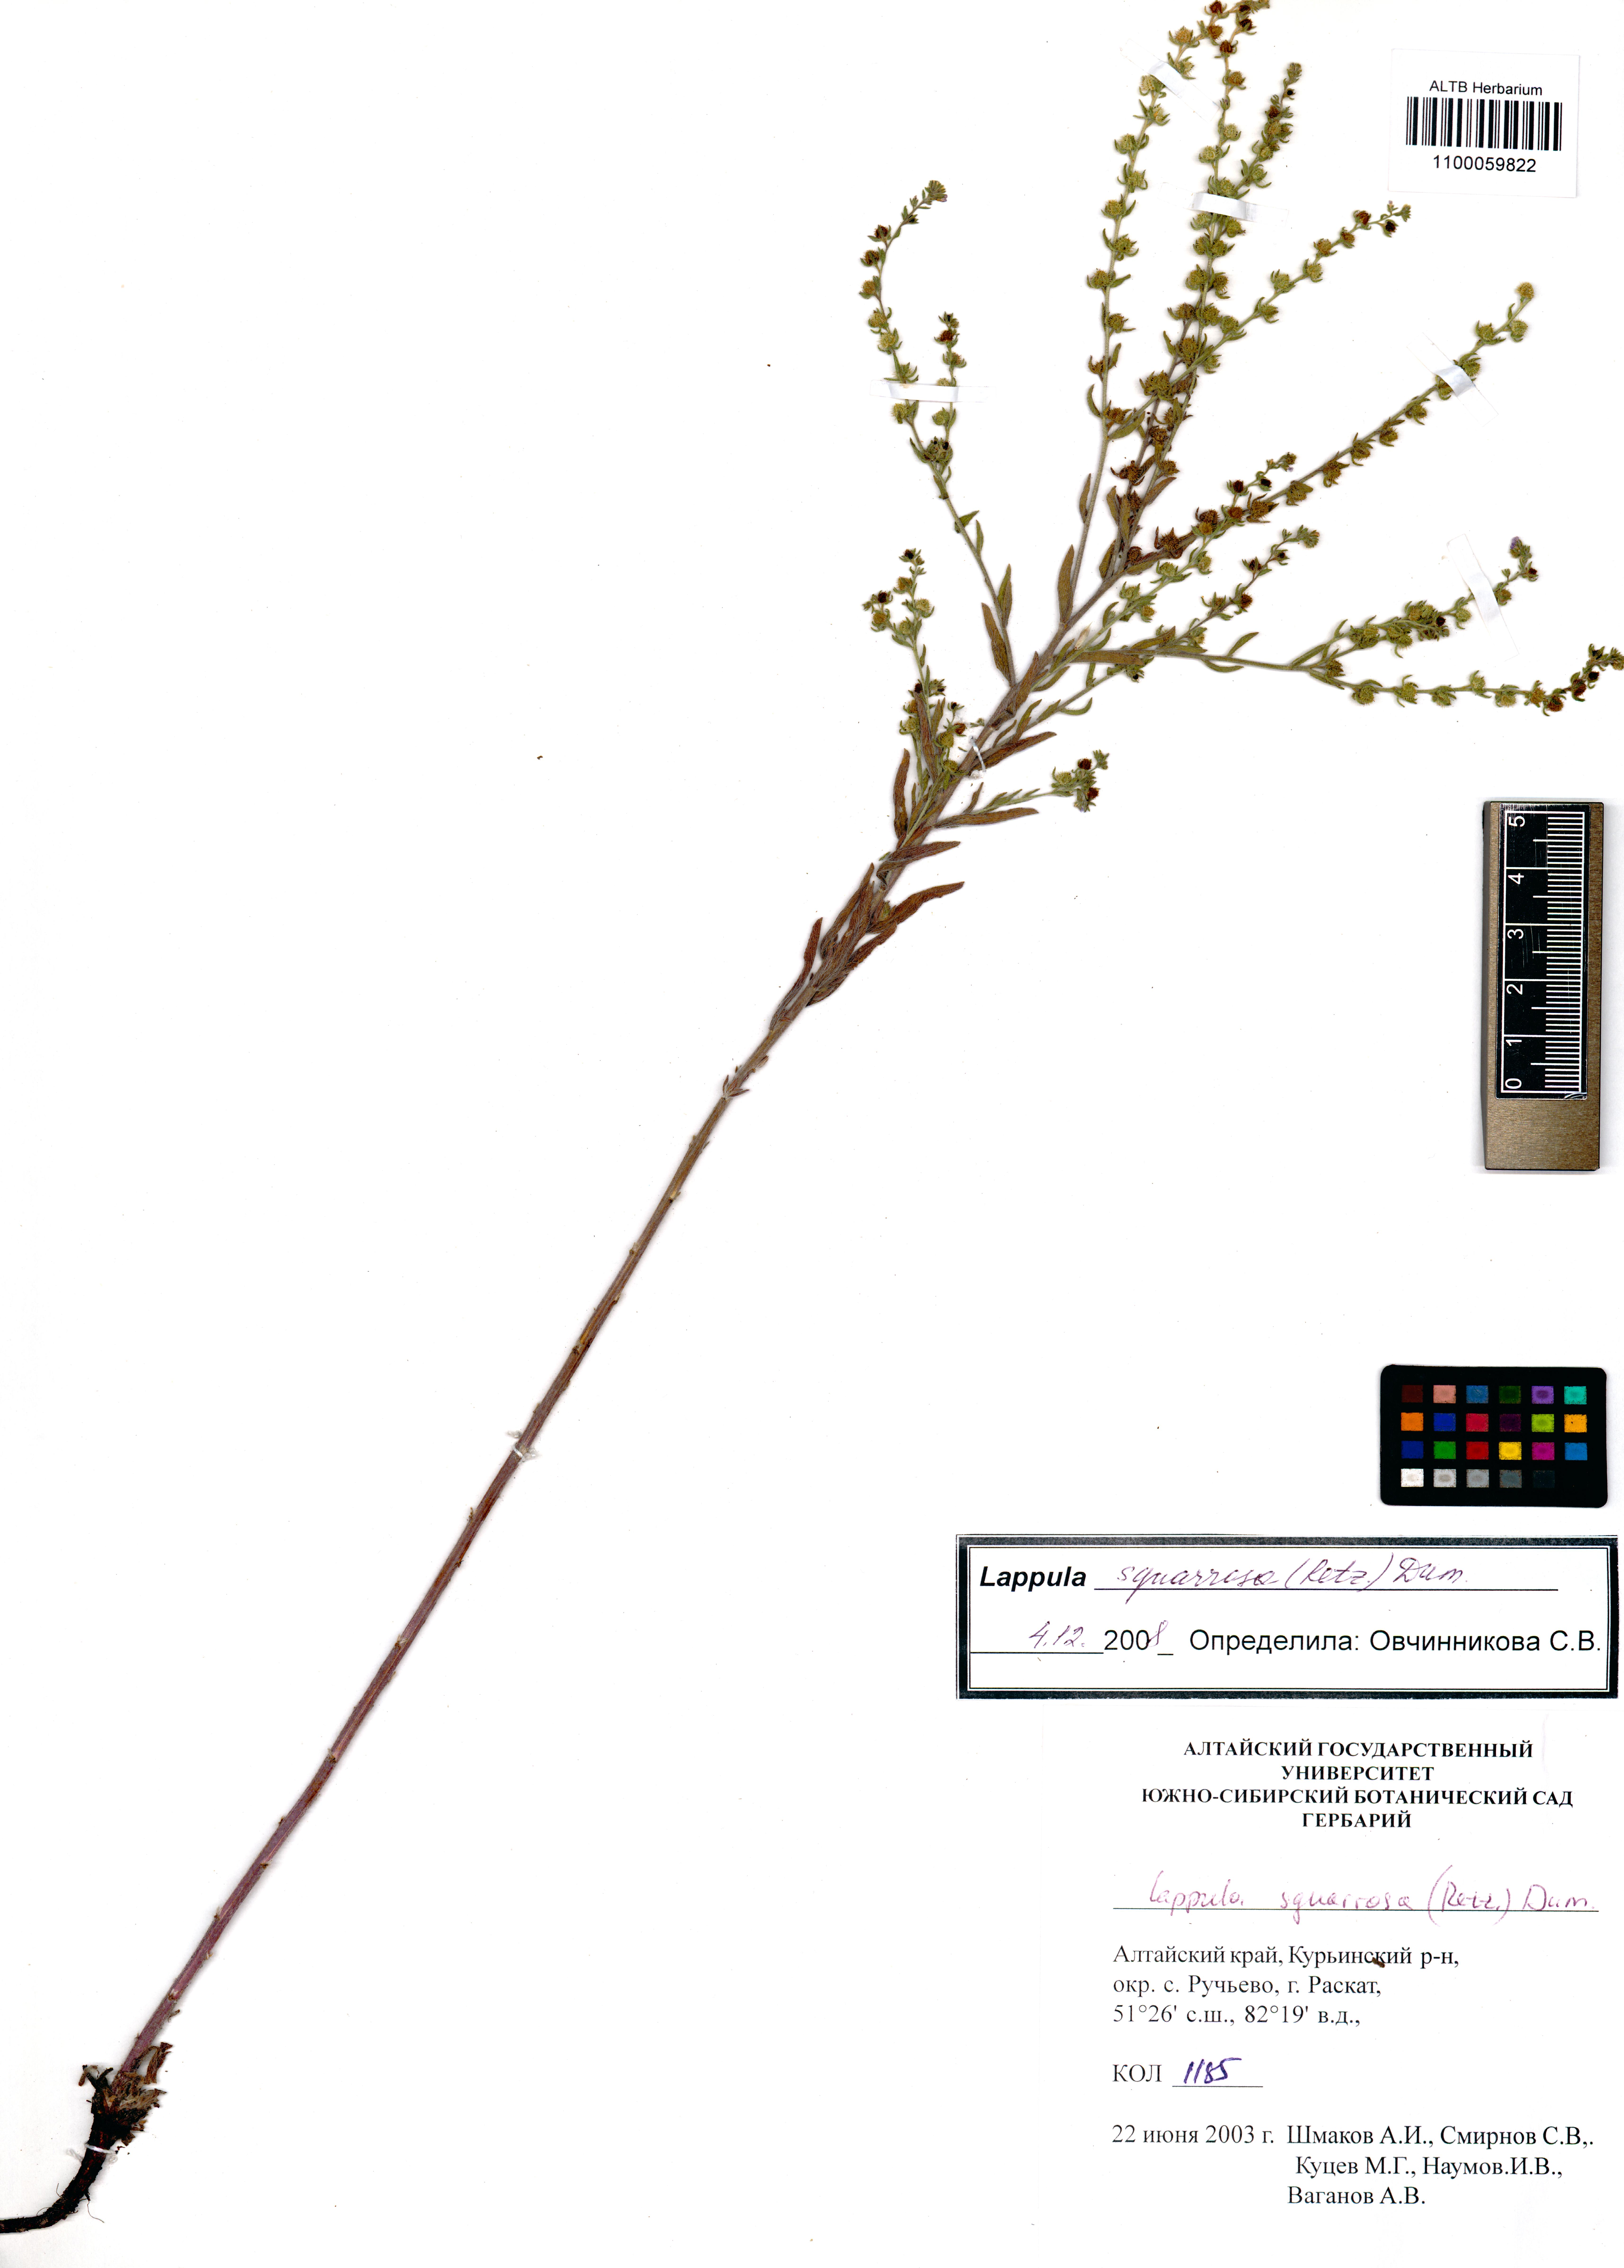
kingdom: Plantae
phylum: Tracheophyta
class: Magnoliopsida
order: Boraginales
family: Boraginaceae
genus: Lappula
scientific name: Lappula squarrosa
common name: European stickseed
